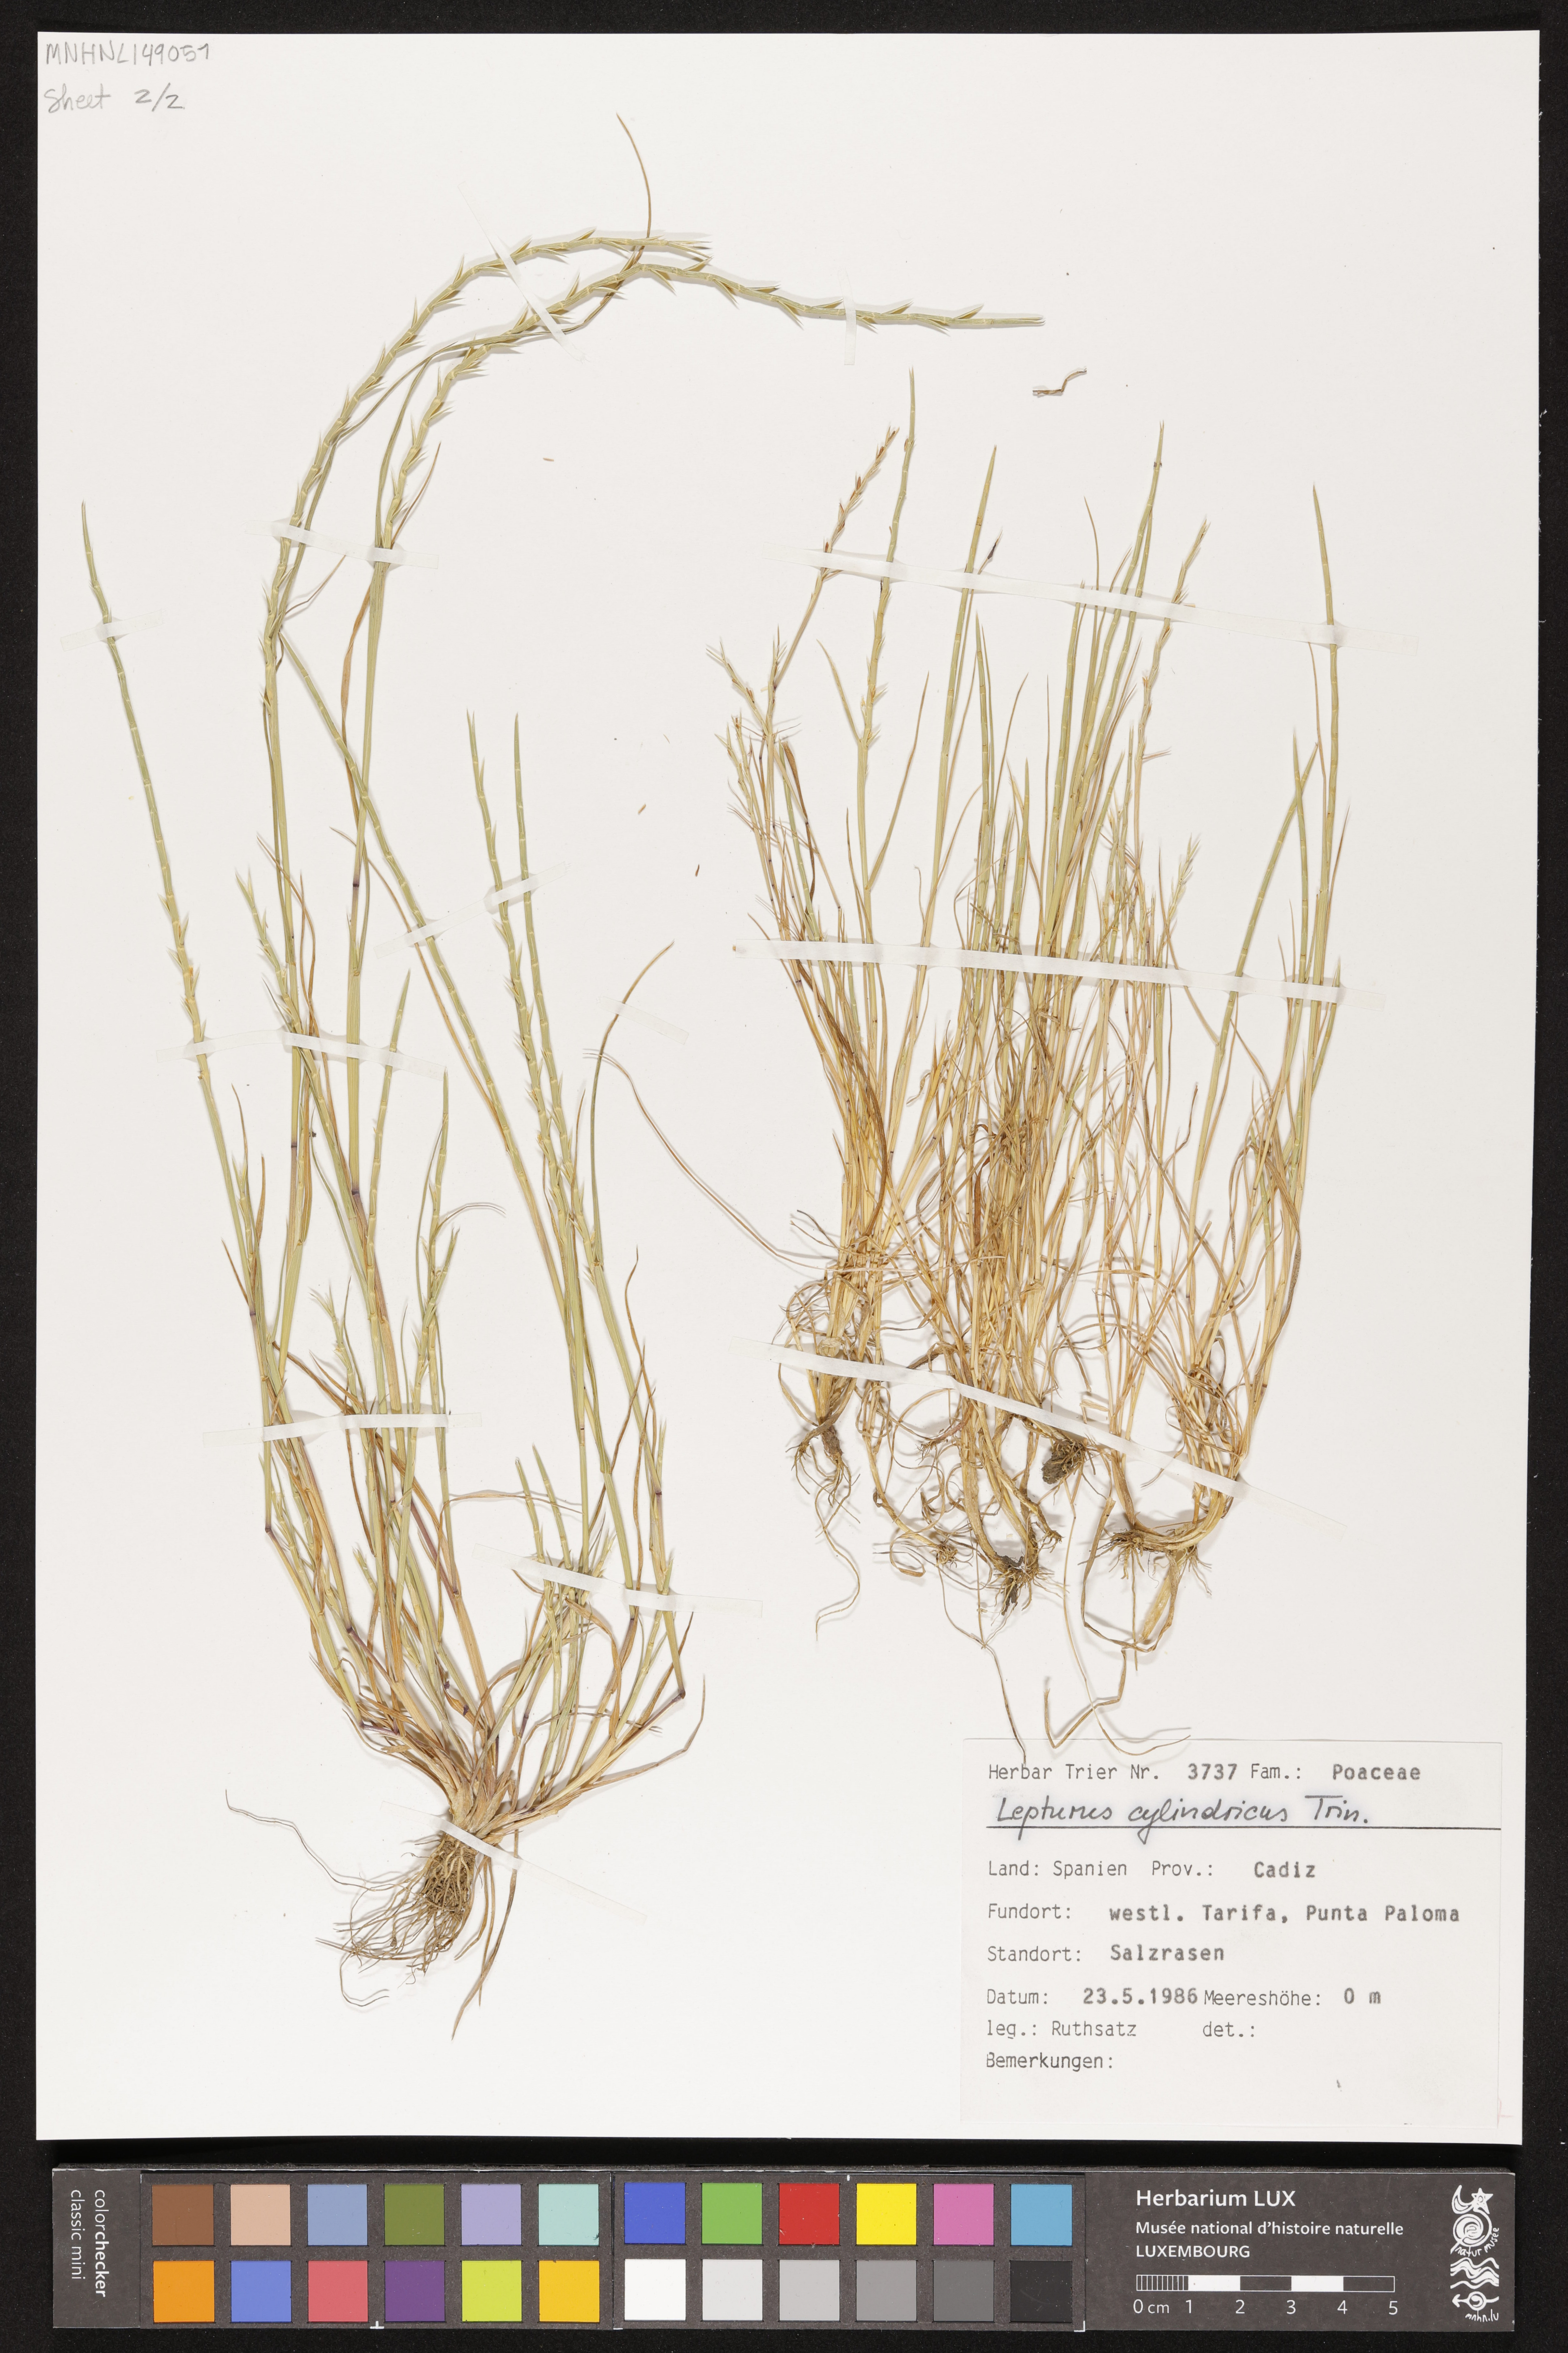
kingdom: Plantae
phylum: Tracheophyta
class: Liliopsida
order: Poales
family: Poaceae
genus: Parapholis
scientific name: Parapholis cylindrica
